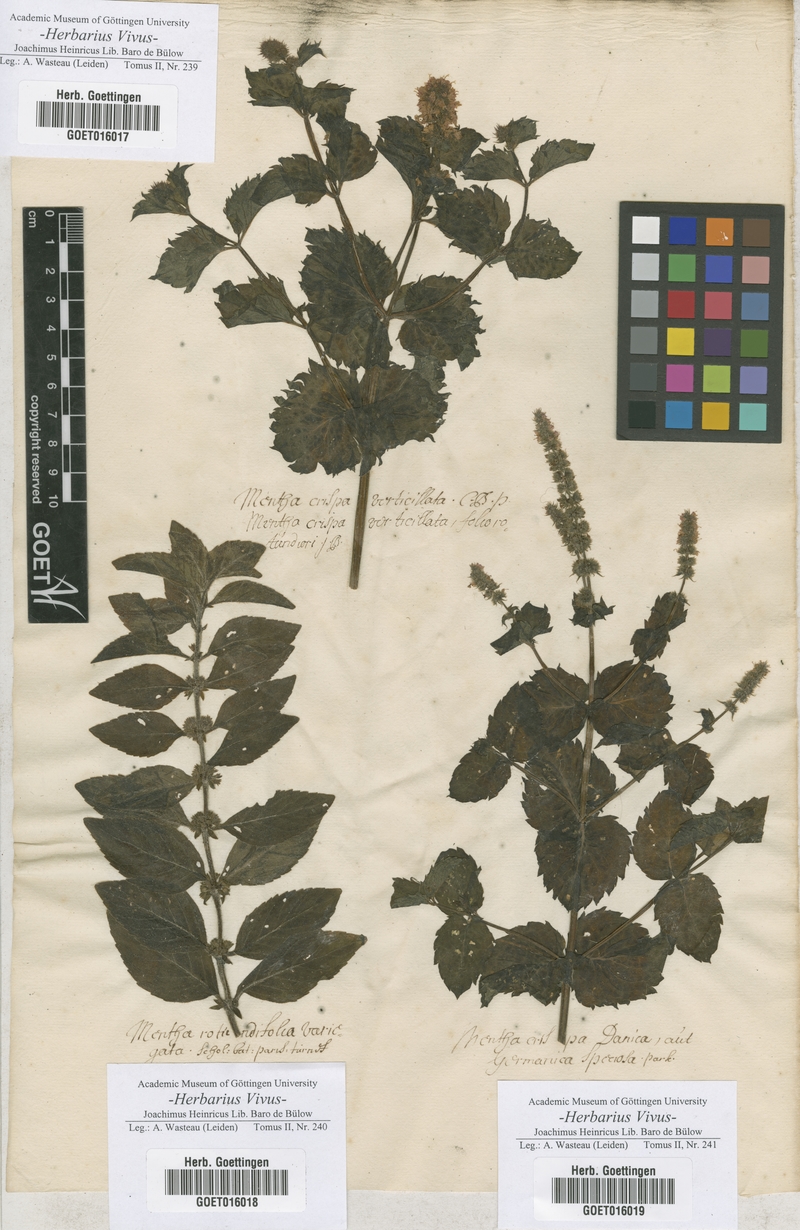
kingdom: Plantae
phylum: Tracheophyta
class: Magnoliopsida
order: Lamiales
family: Lamiaceae
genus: Mentha
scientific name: Mentha
